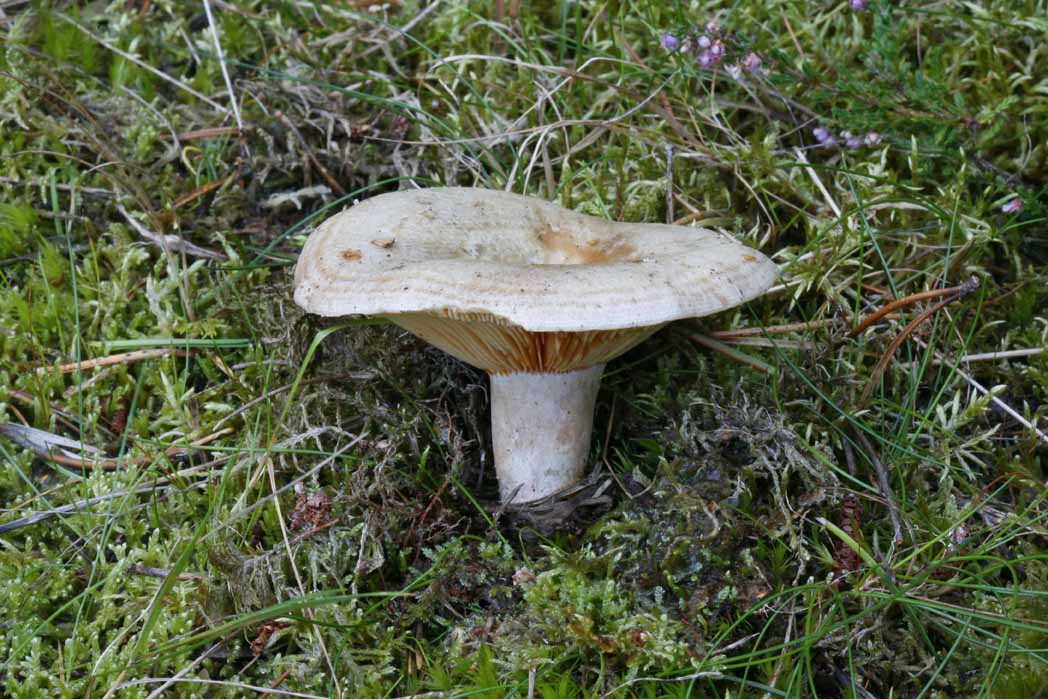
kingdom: Fungi
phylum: Basidiomycota
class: Agaricomycetes
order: Russulales
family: Russulaceae
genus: Lactarius
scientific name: Lactarius quieticolor
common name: tvefarvet mælkehat
